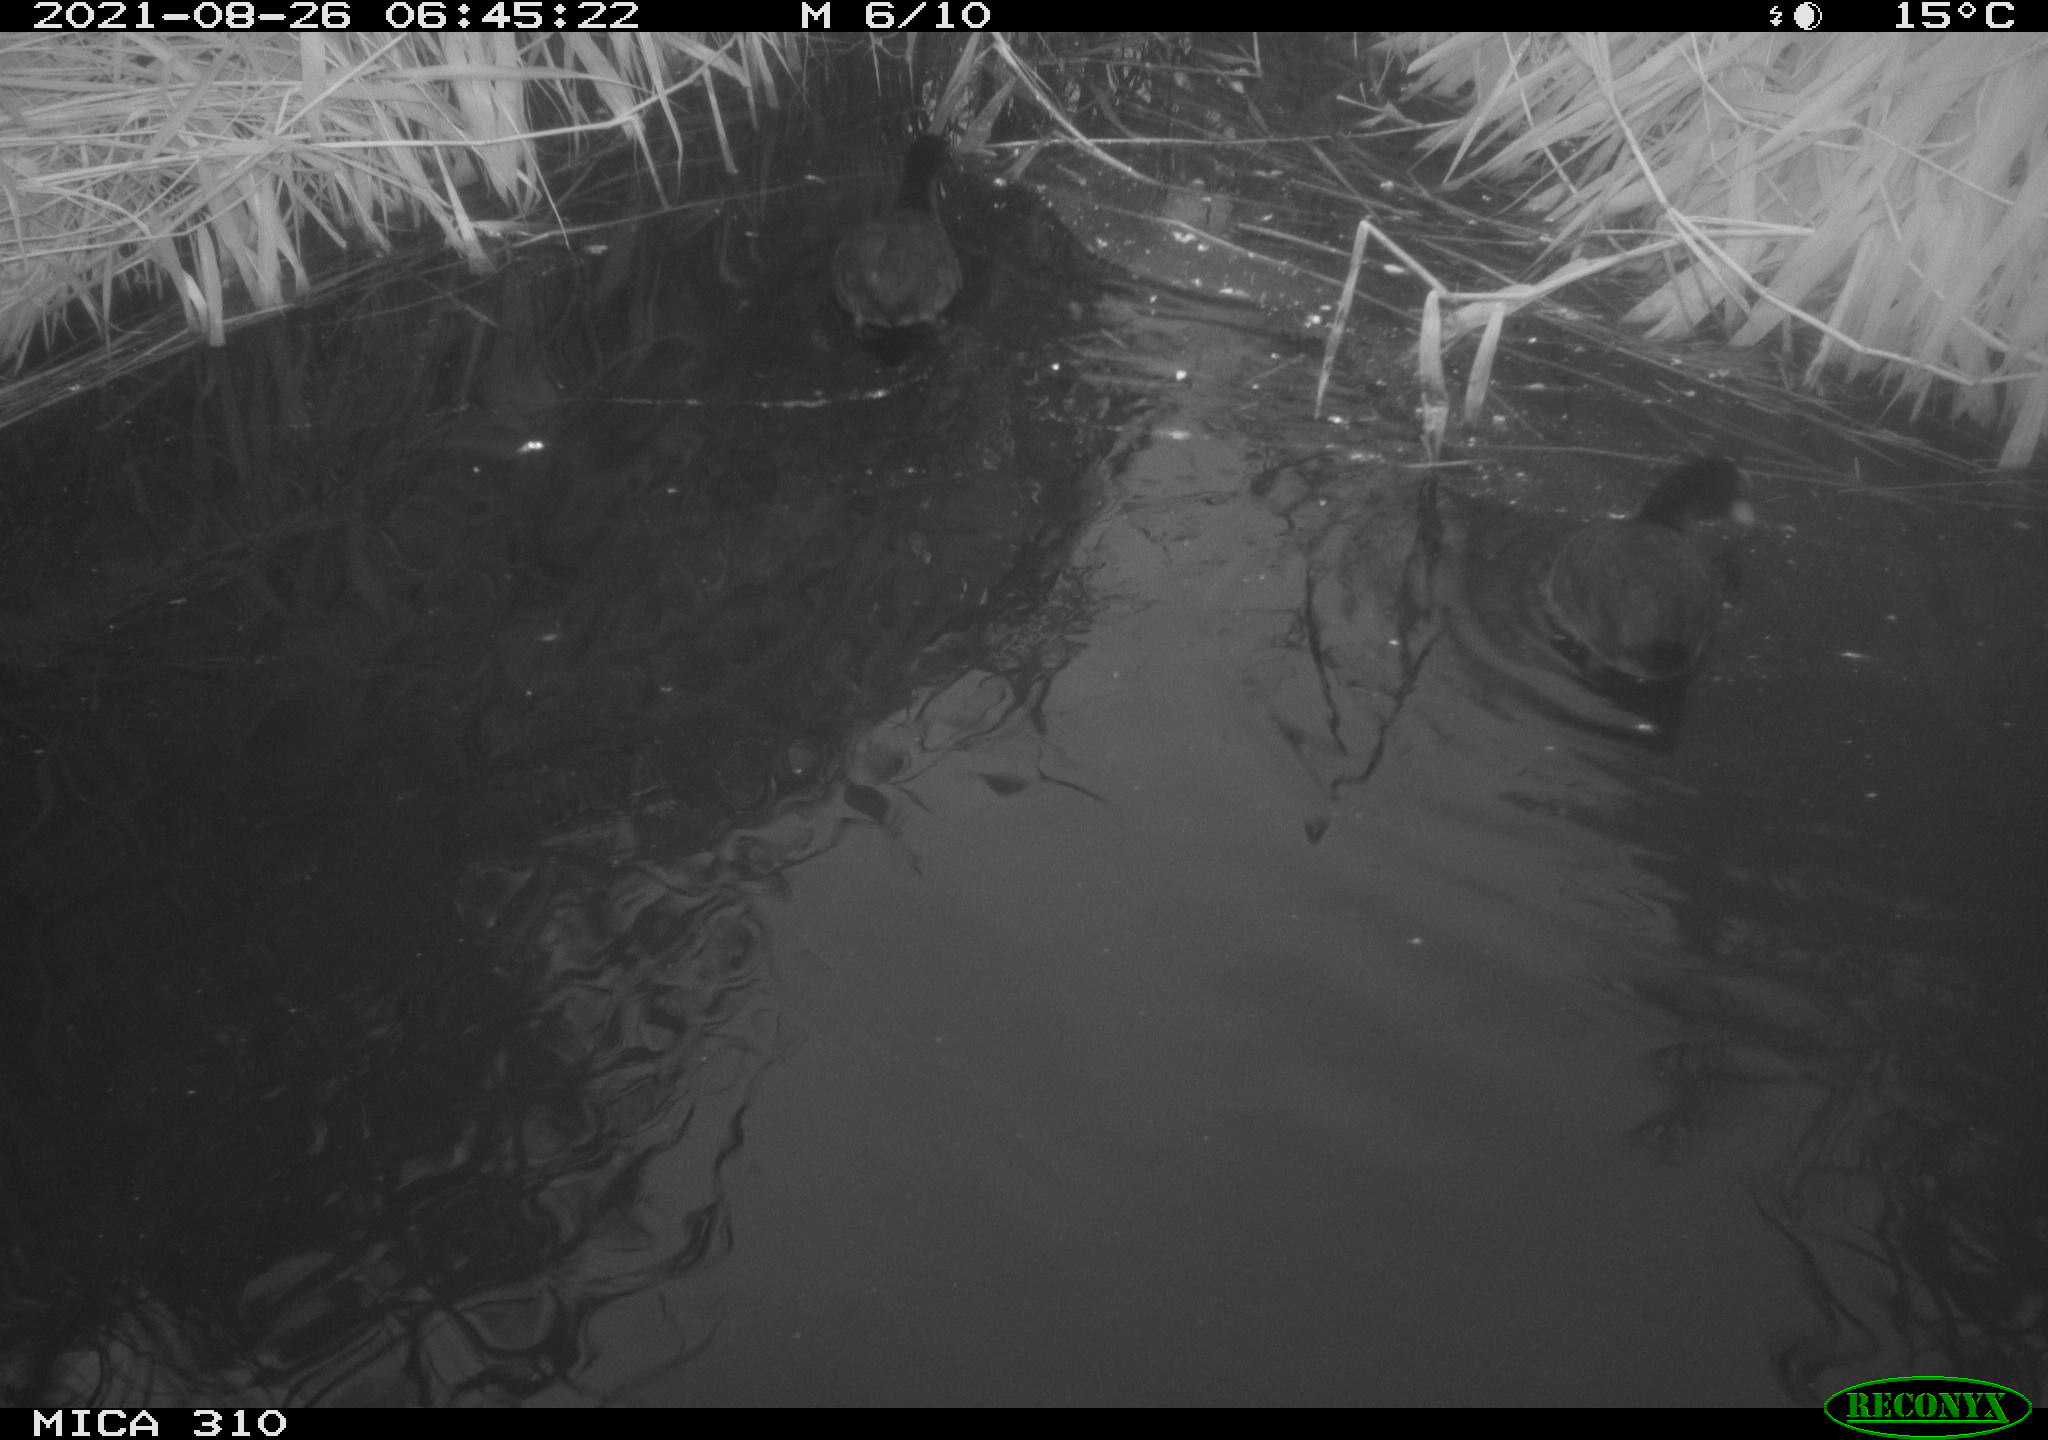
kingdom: Animalia
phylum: Chordata
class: Aves
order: Gruiformes
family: Rallidae
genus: Fulica
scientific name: Fulica atra
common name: Eurasian coot
